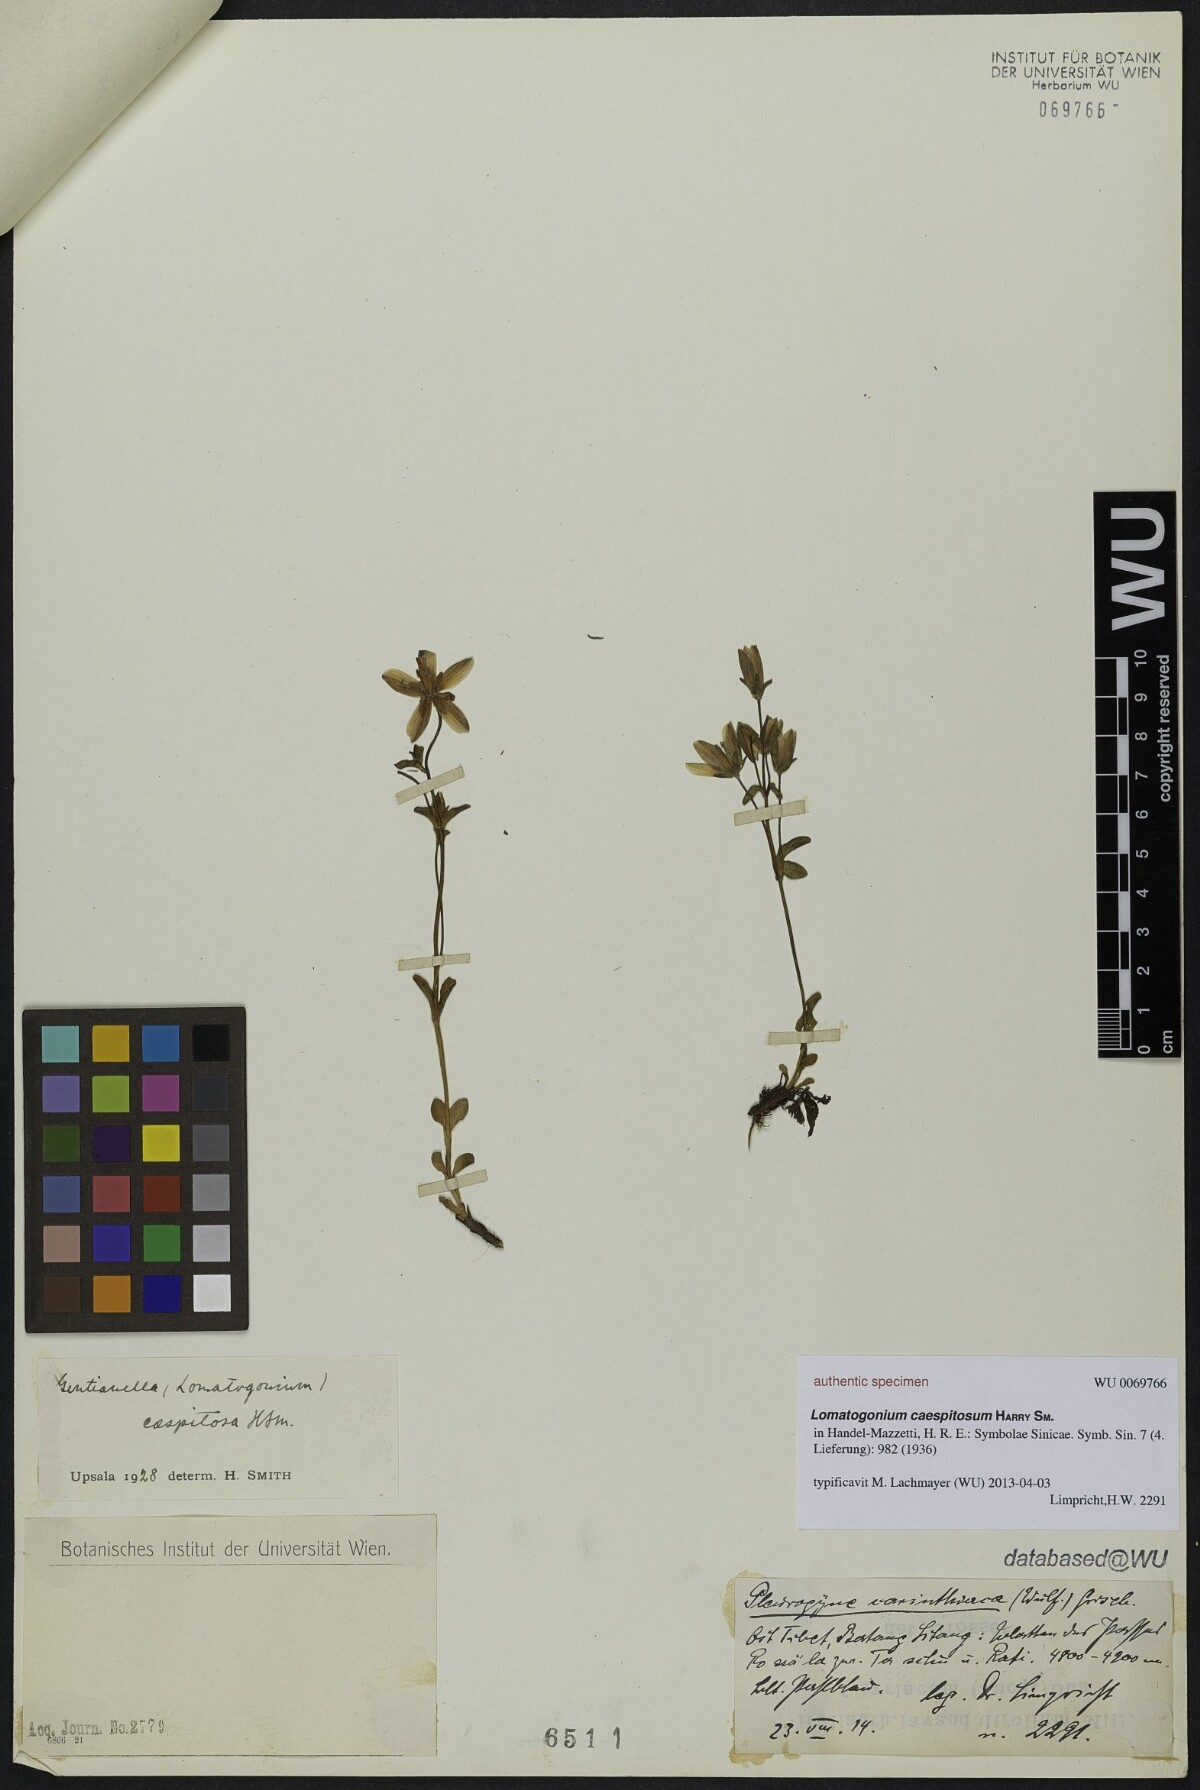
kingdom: Plantae
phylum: Tracheophyta
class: Magnoliopsida
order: Gentianales
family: Gentianaceae
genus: Lomatogonium
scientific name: Lomatogonium perenne
